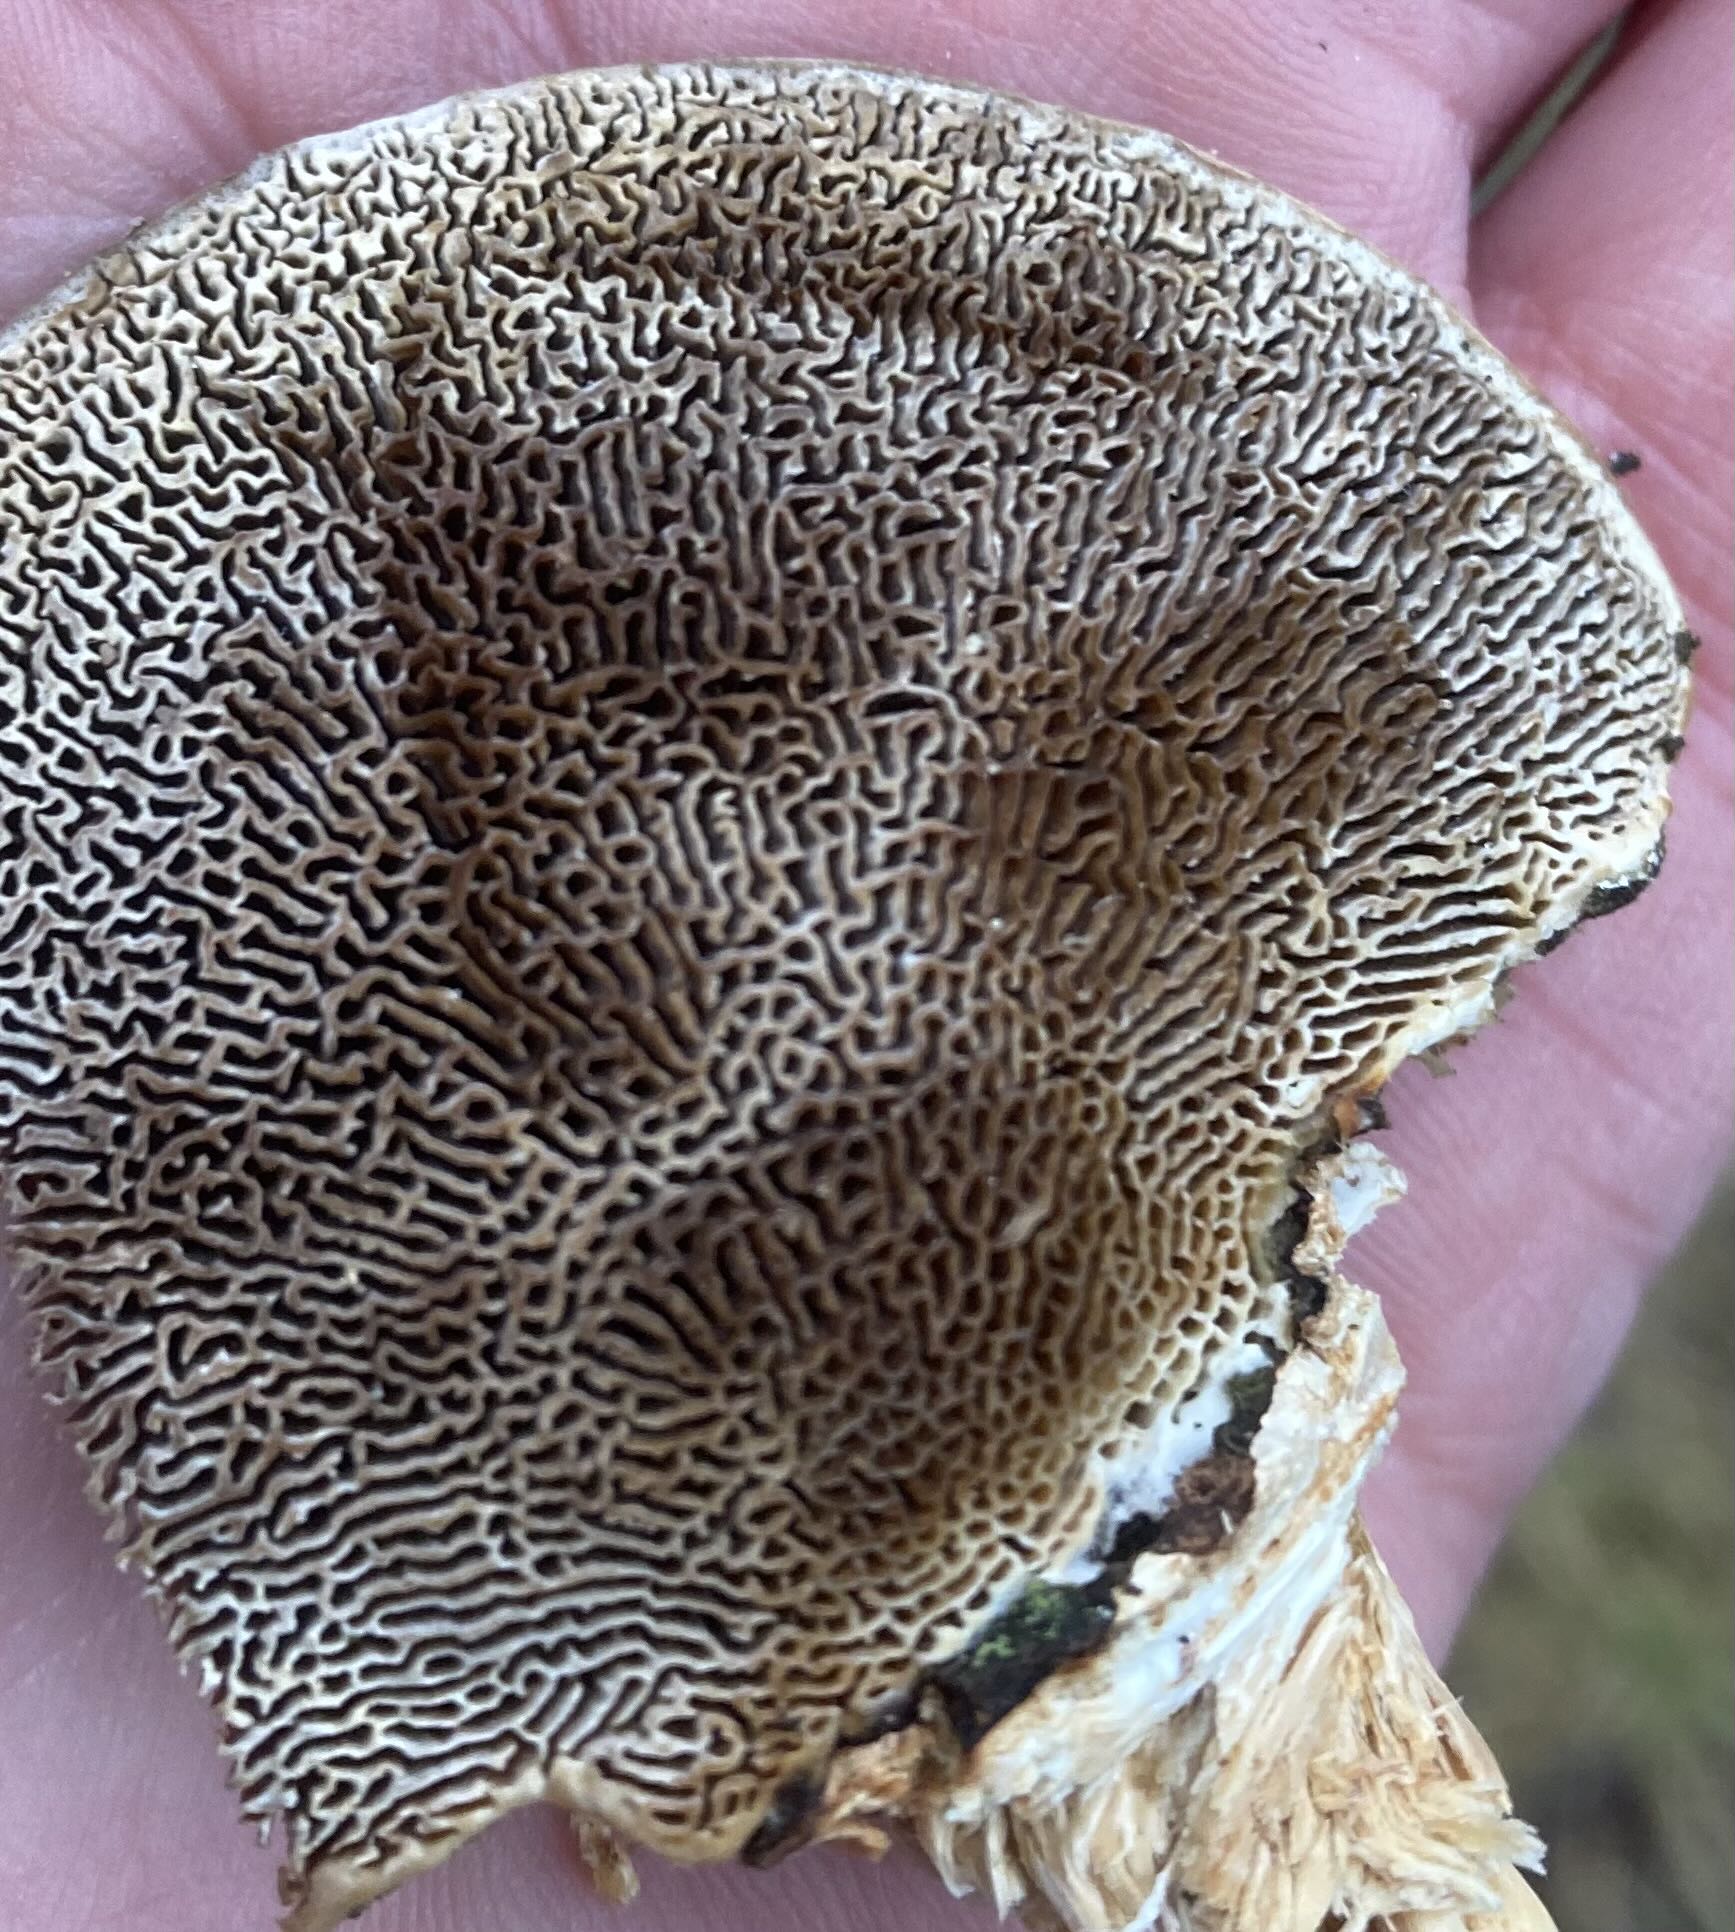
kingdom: Fungi
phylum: Basidiomycota
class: Agaricomycetes
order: Polyporales
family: Polyporaceae
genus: Daedaleopsis
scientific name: Daedaleopsis confragosa
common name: rødmende læderporesvamp
